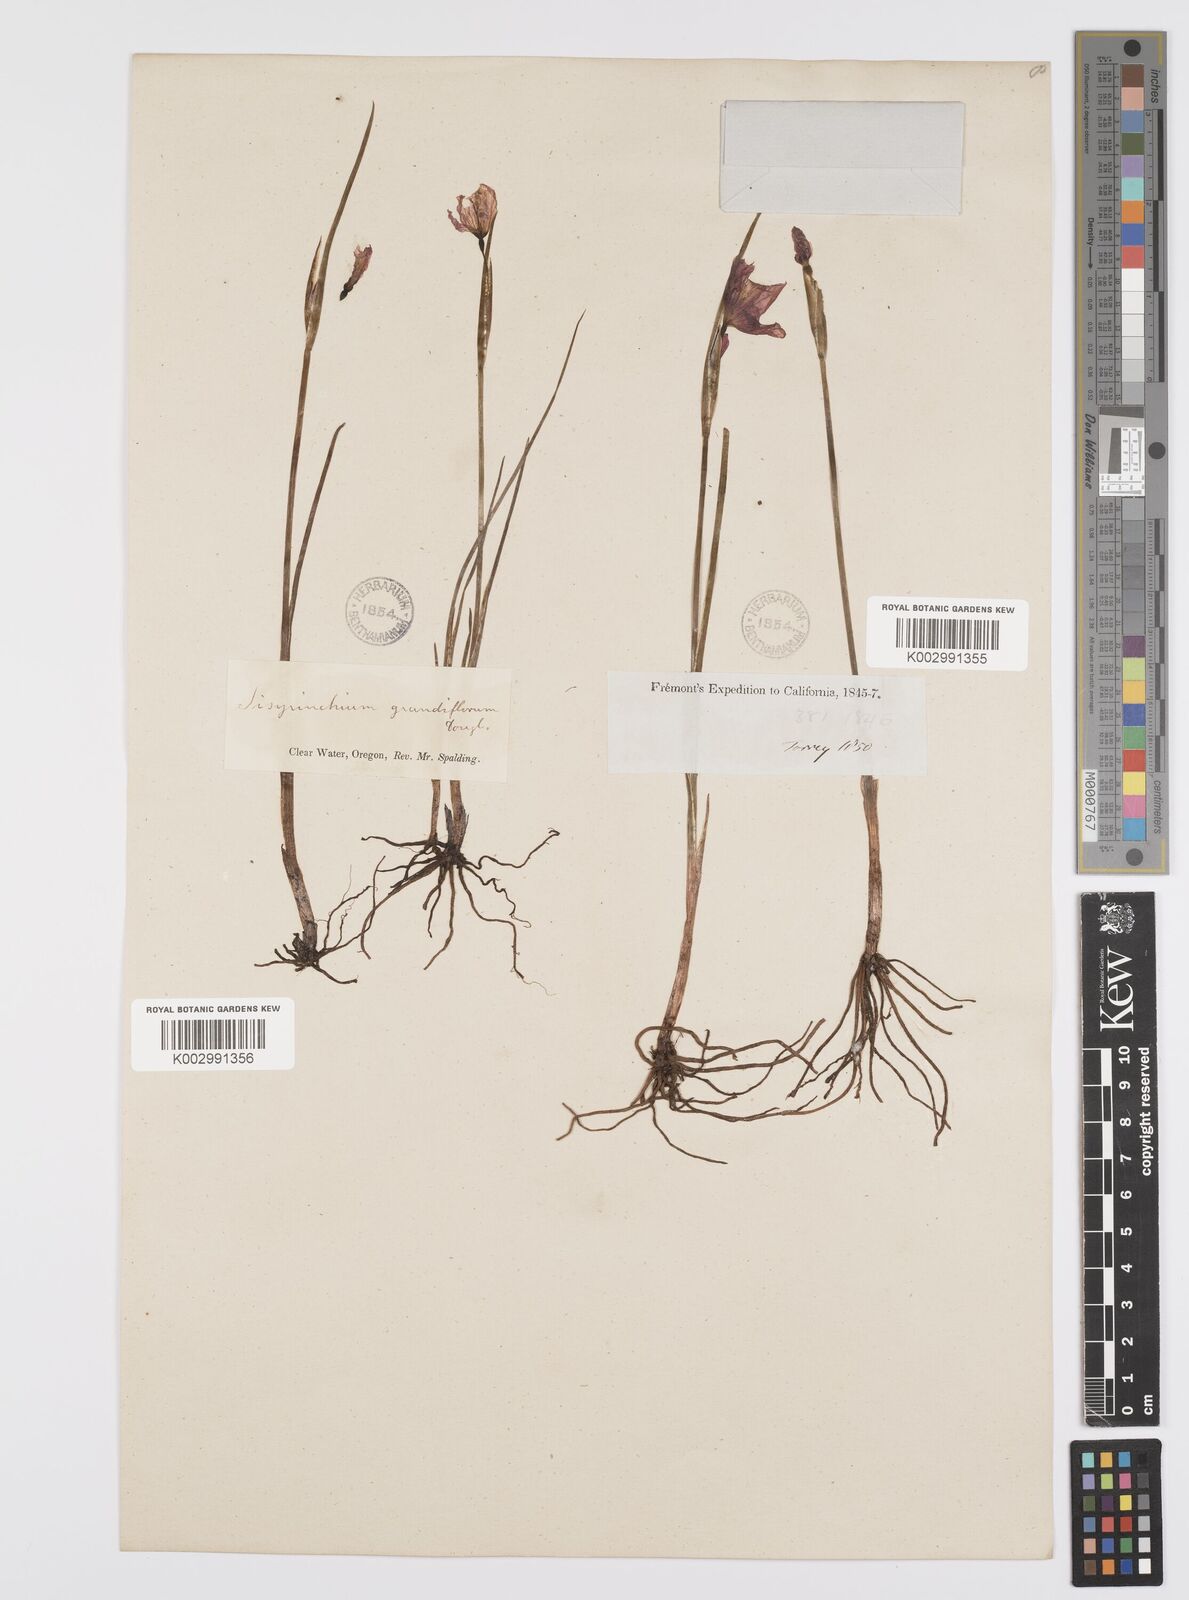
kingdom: Plantae
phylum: Tracheophyta
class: Liliopsida
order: Asparagales
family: Iridaceae
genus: Olsynium
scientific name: Olsynium douglasii
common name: Douglas' grasswidow
